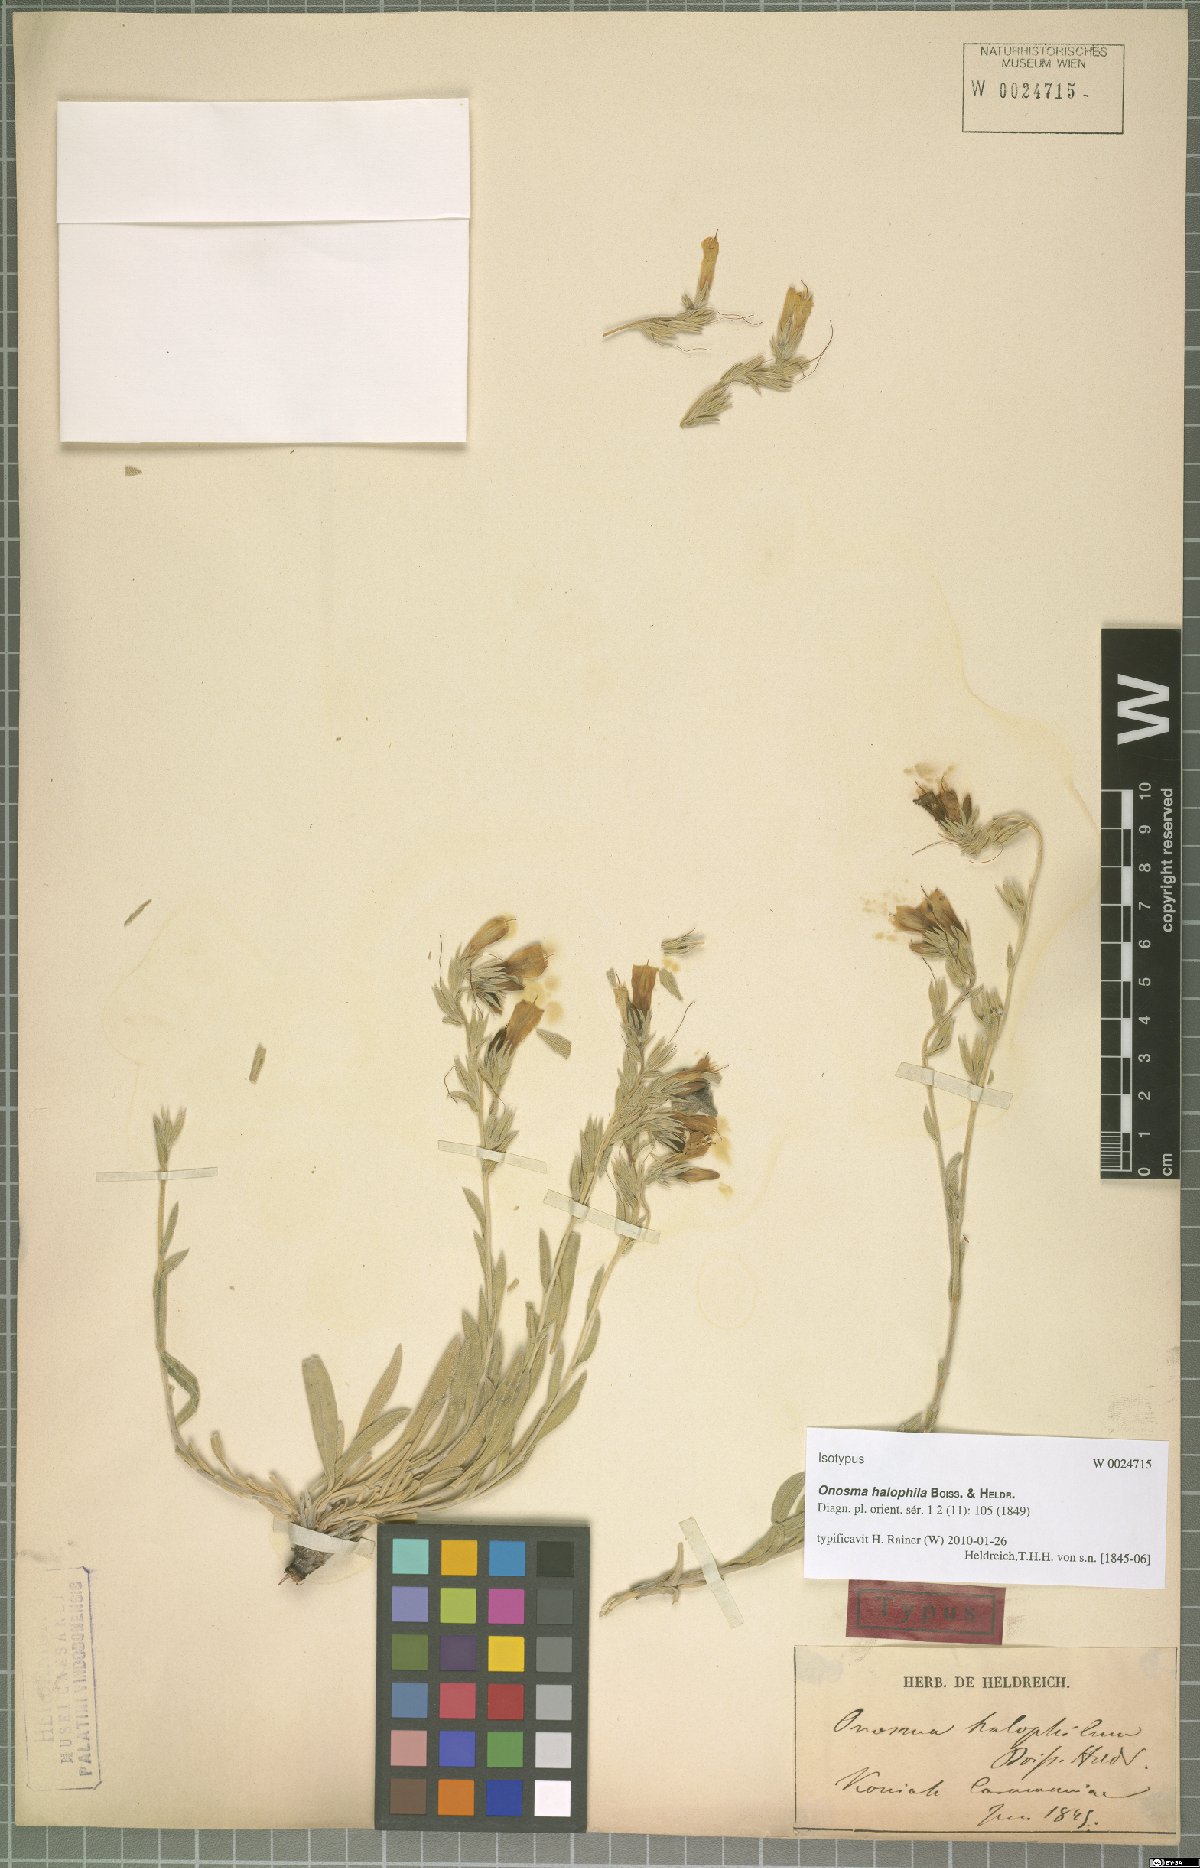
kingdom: Plantae
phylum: Tracheophyta
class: Magnoliopsida
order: Boraginales
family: Boraginaceae
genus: Onosma
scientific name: Onosma halophila
